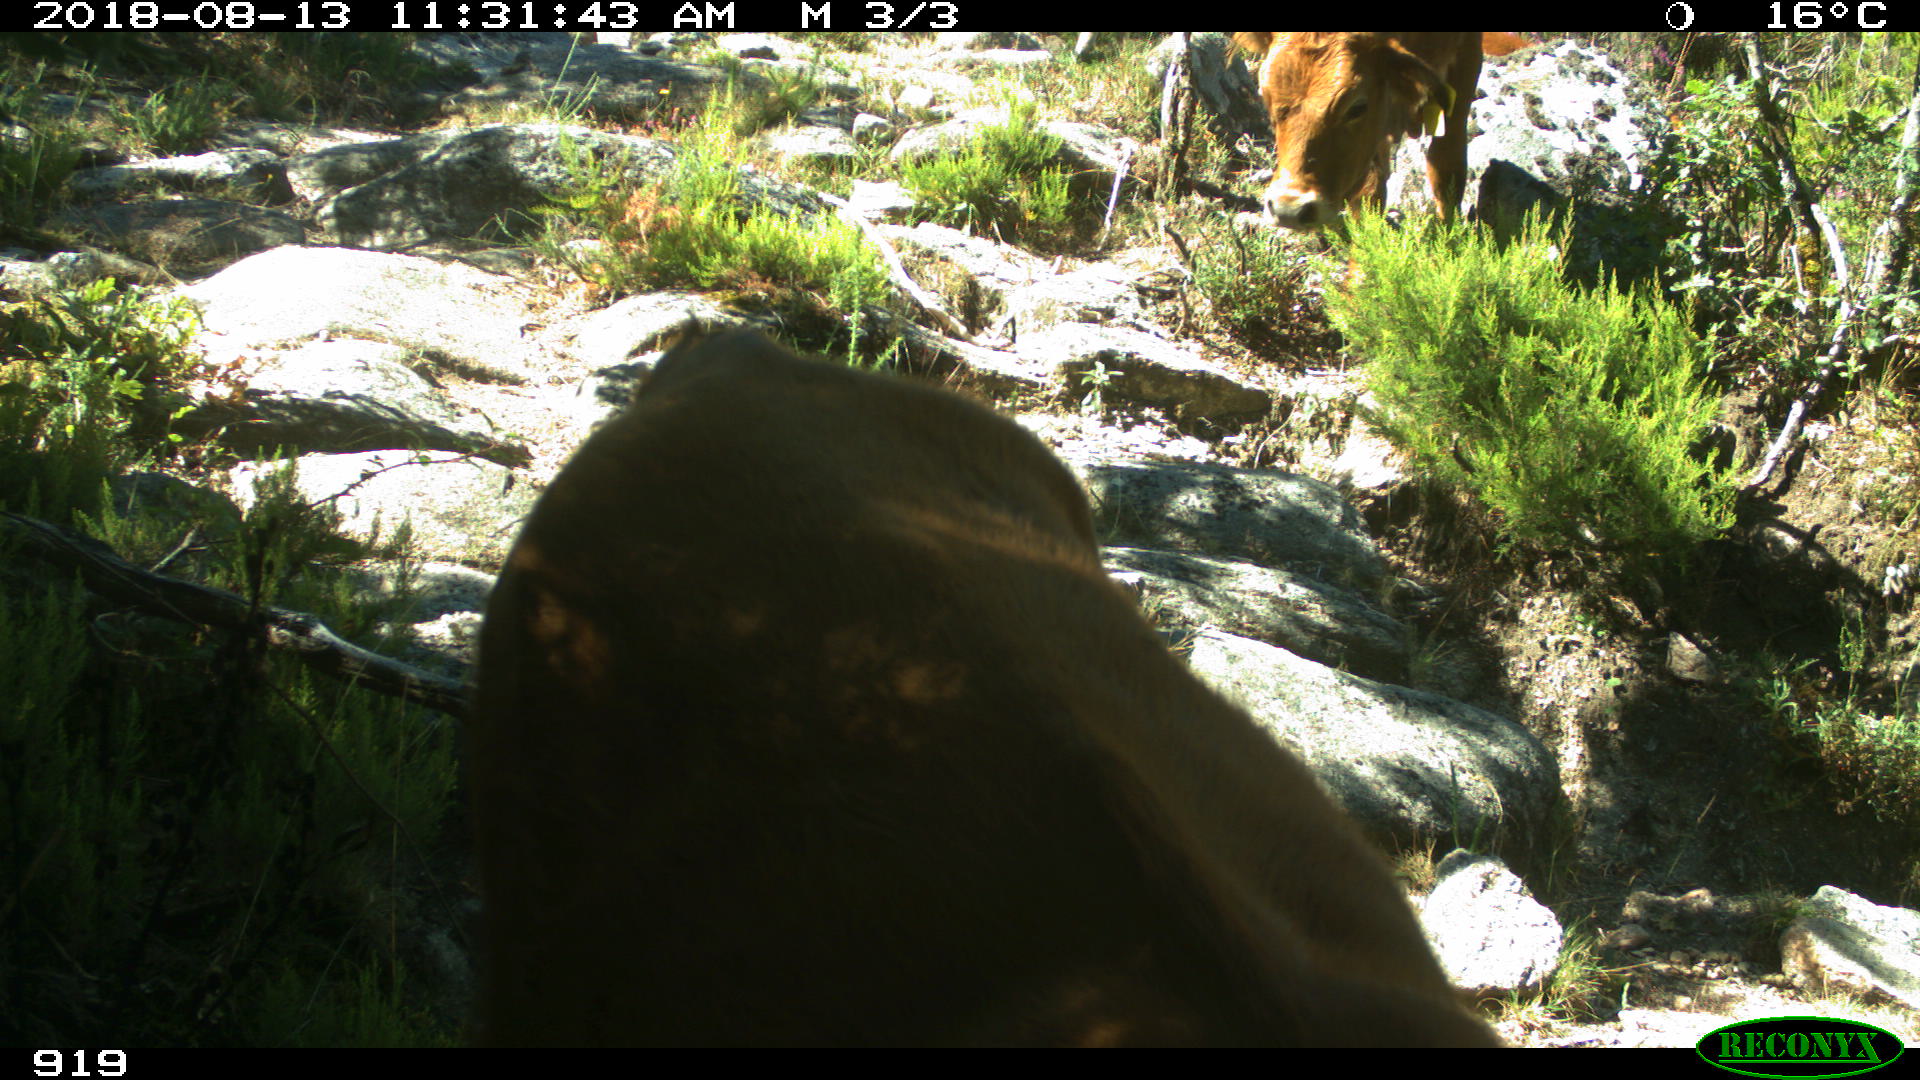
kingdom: Animalia
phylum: Chordata
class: Mammalia
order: Artiodactyla
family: Bovidae
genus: Bos
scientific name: Bos taurus
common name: Domesticated cattle
